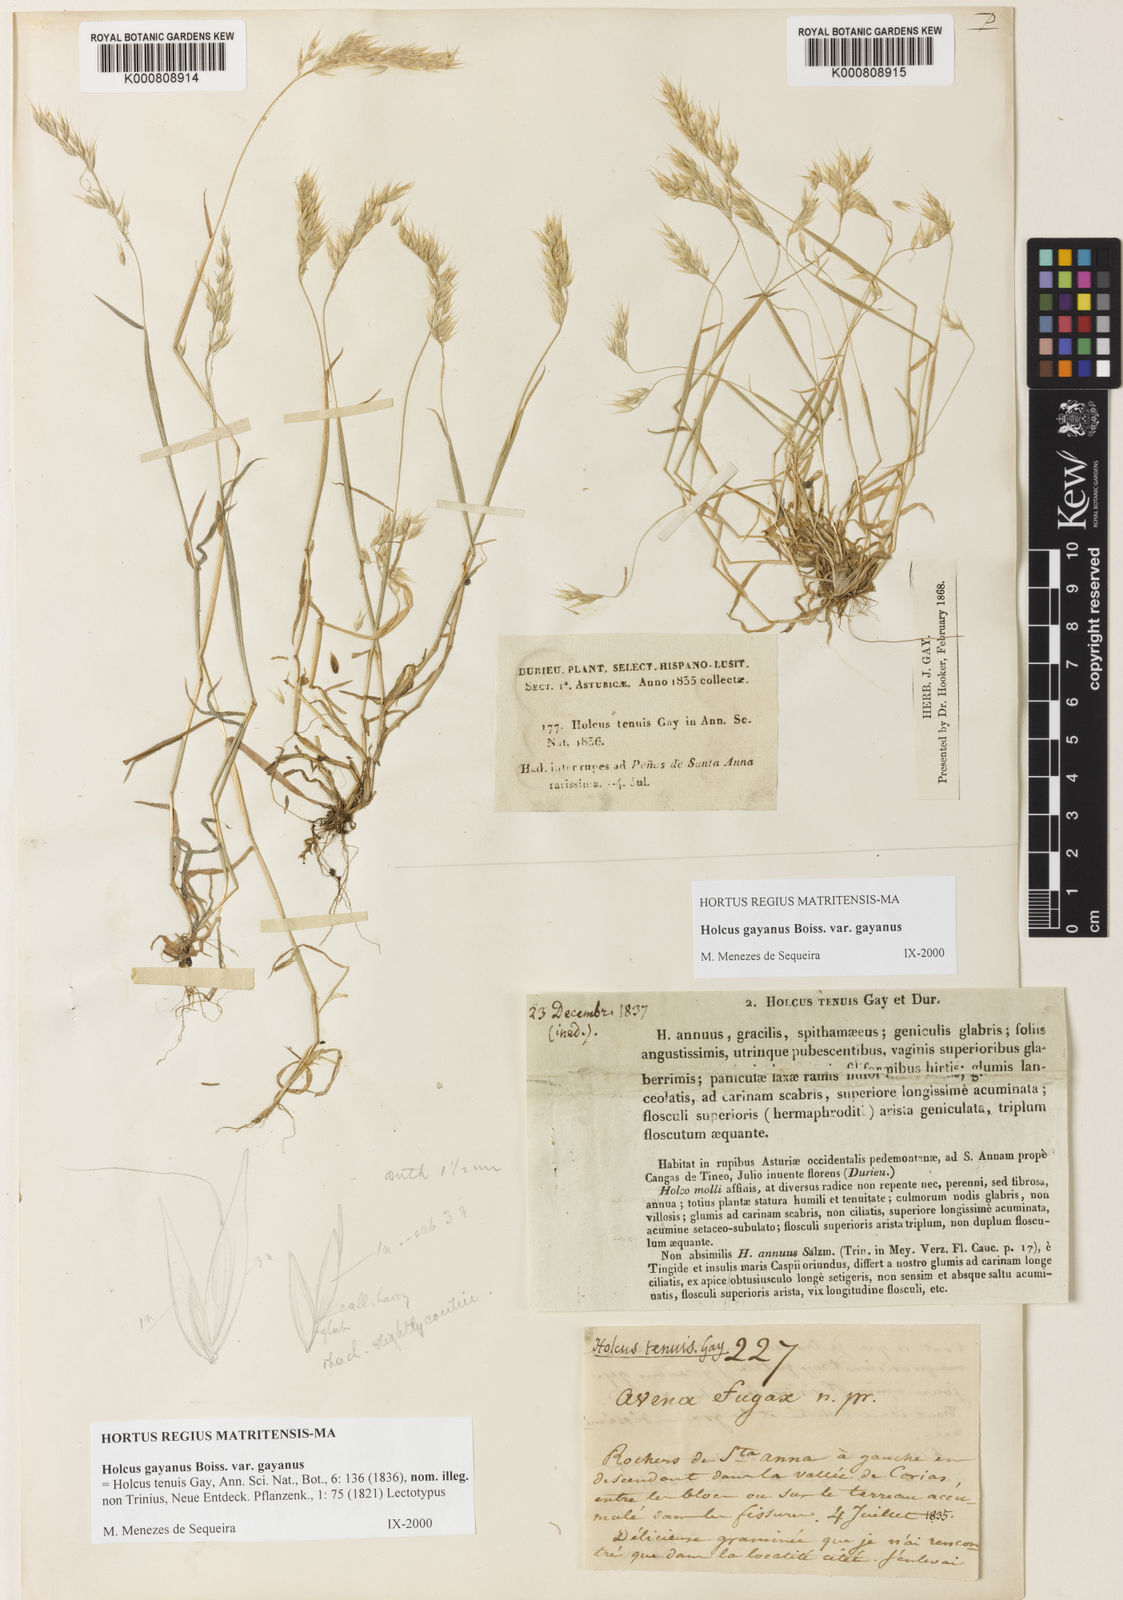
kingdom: Plantae
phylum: Tracheophyta
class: Liliopsida
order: Poales
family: Poaceae
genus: Holcus
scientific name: Holcus mollis
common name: Creeping velvetgrass
